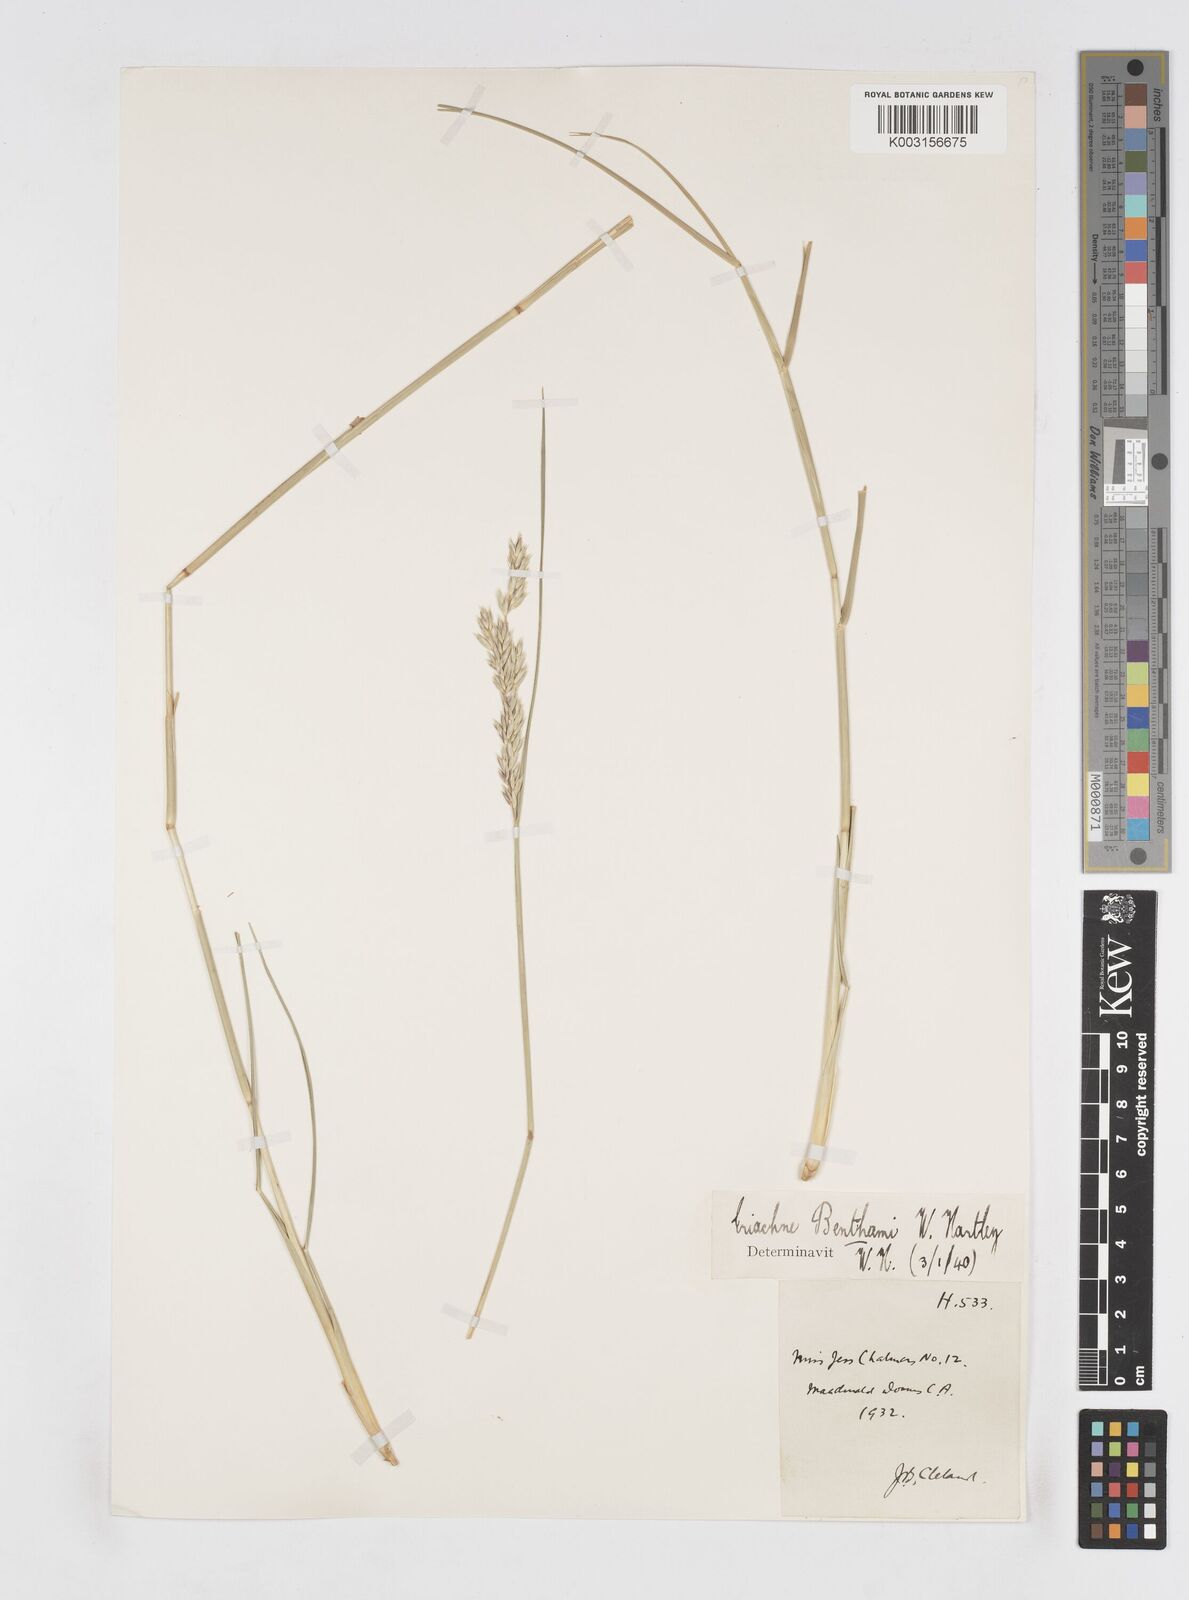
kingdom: Plantae
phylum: Tracheophyta
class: Liliopsida
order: Poales
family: Poaceae
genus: Eriachne
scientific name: Eriachne benthamii
